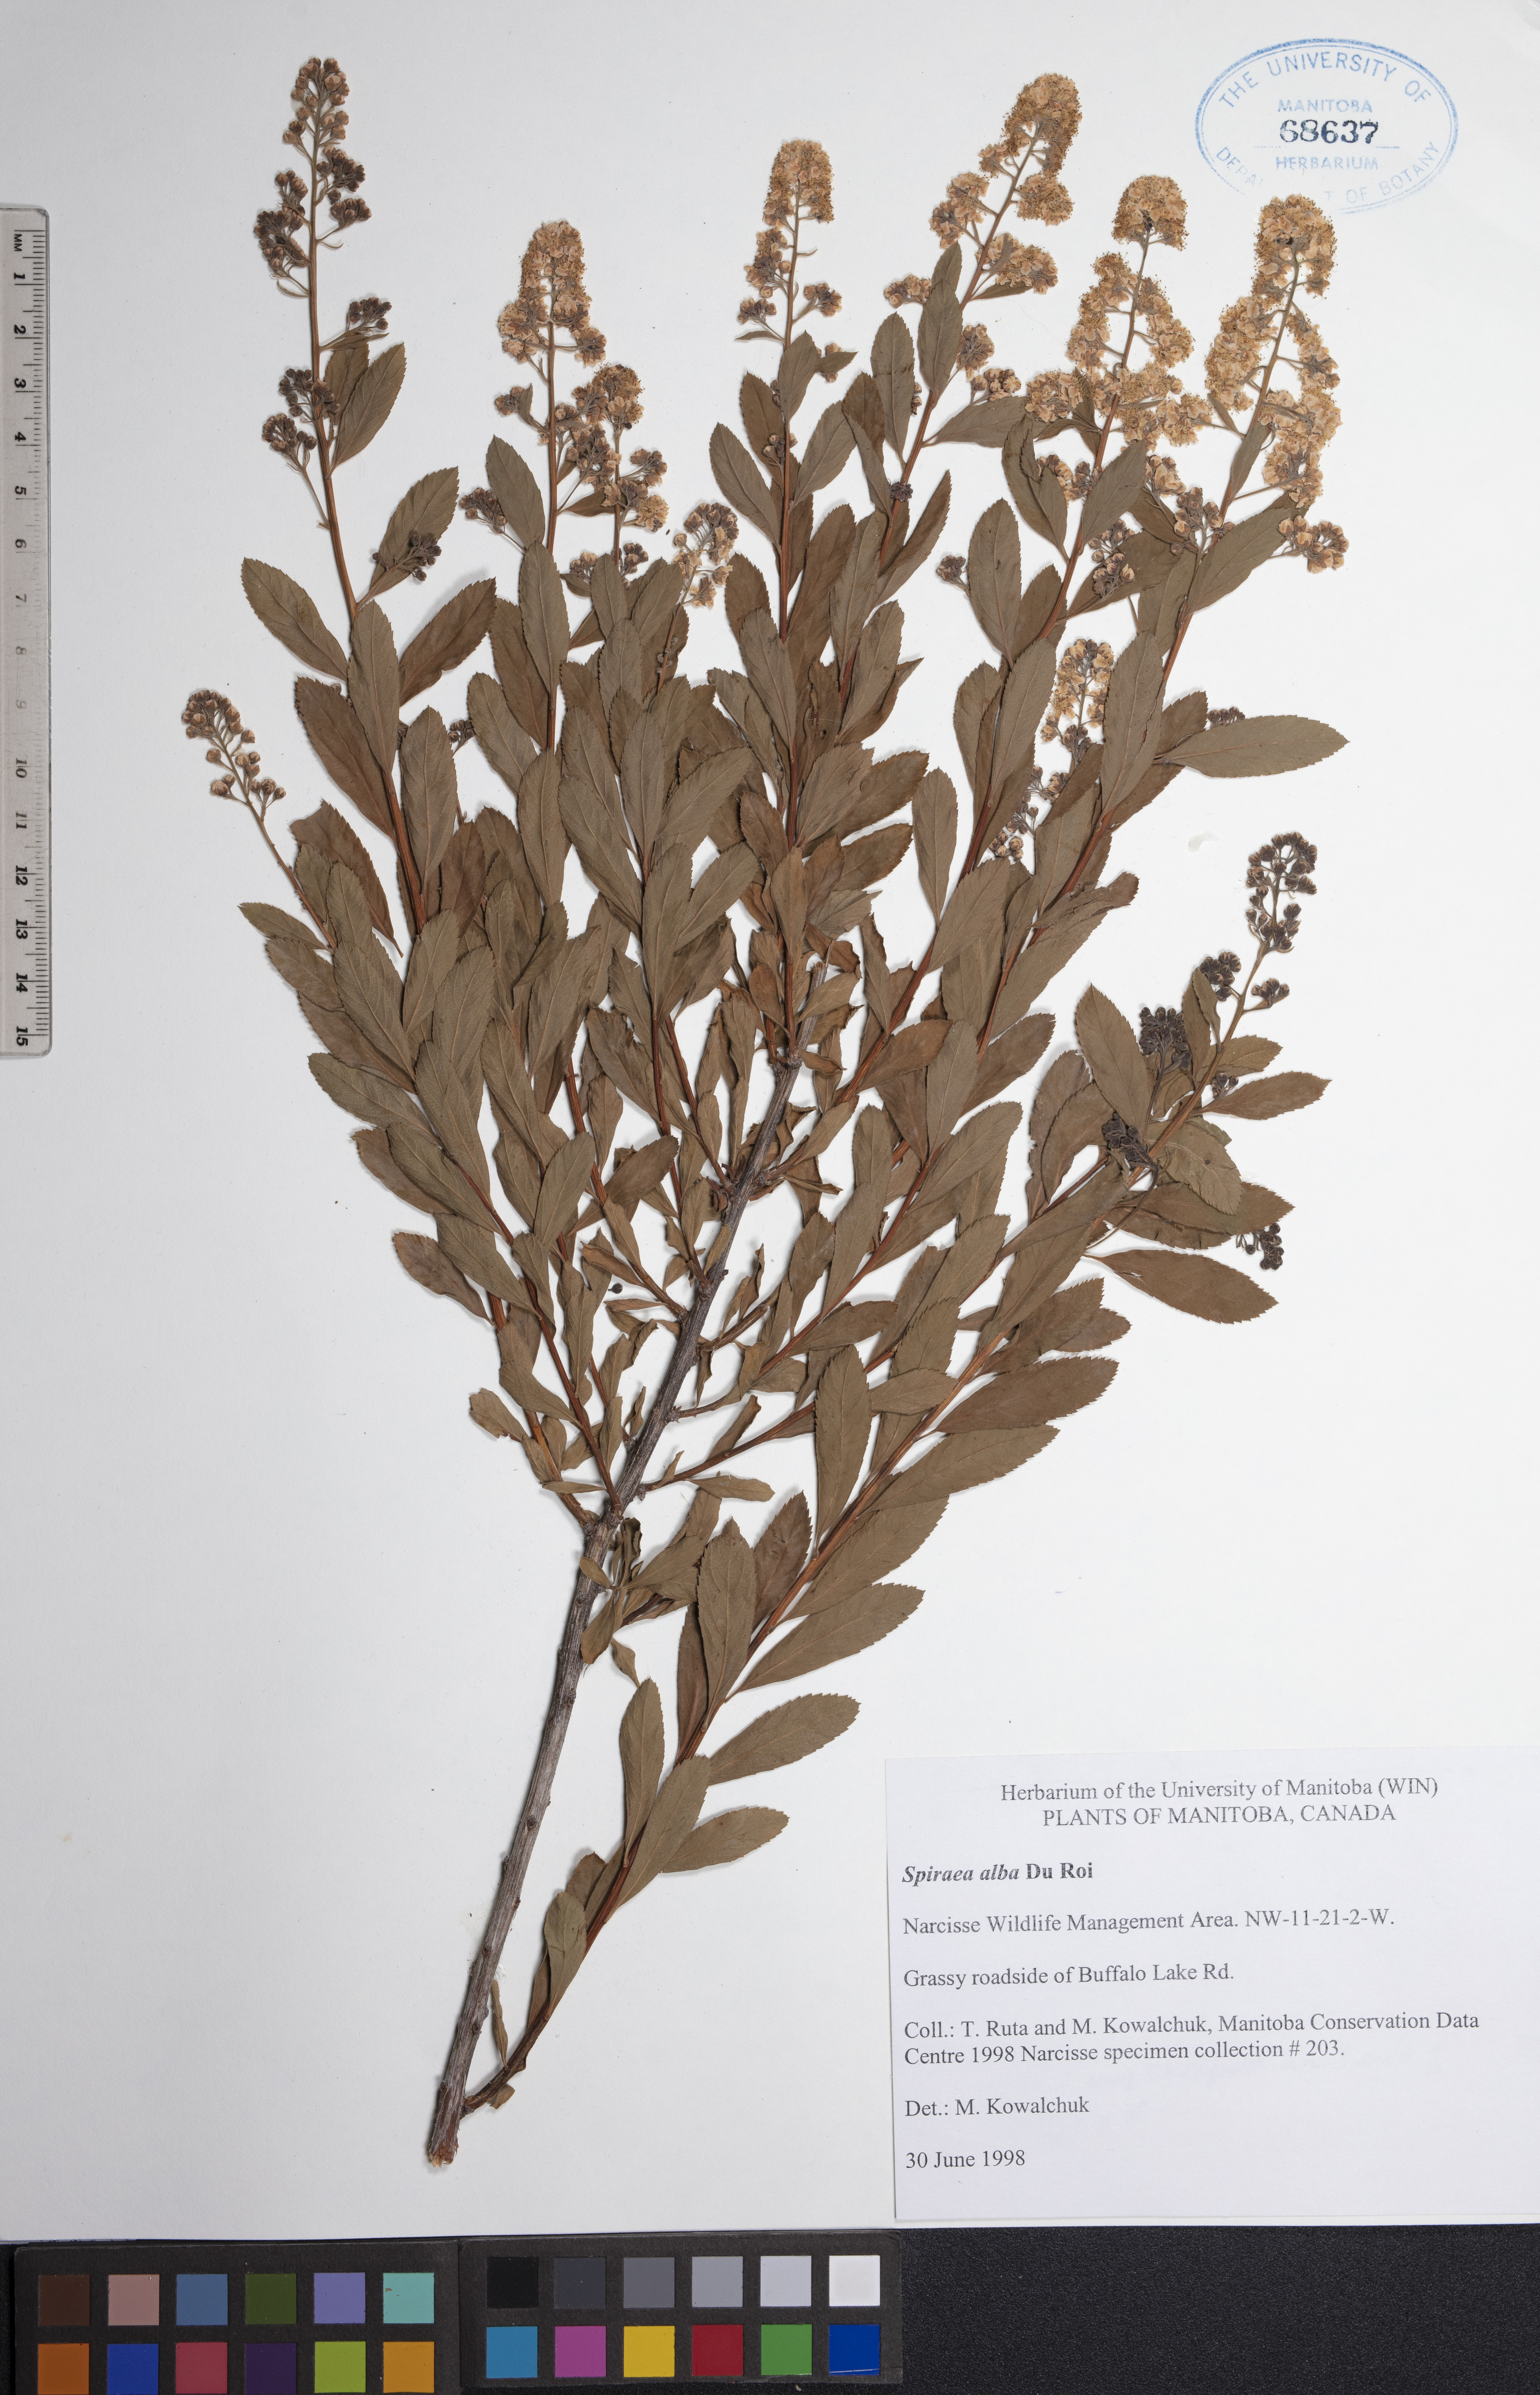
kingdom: Plantae
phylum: Tracheophyta
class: Magnoliopsida
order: Rosales
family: Rosaceae
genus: Spiraea
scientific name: Spiraea alba
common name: Pale bridewort
